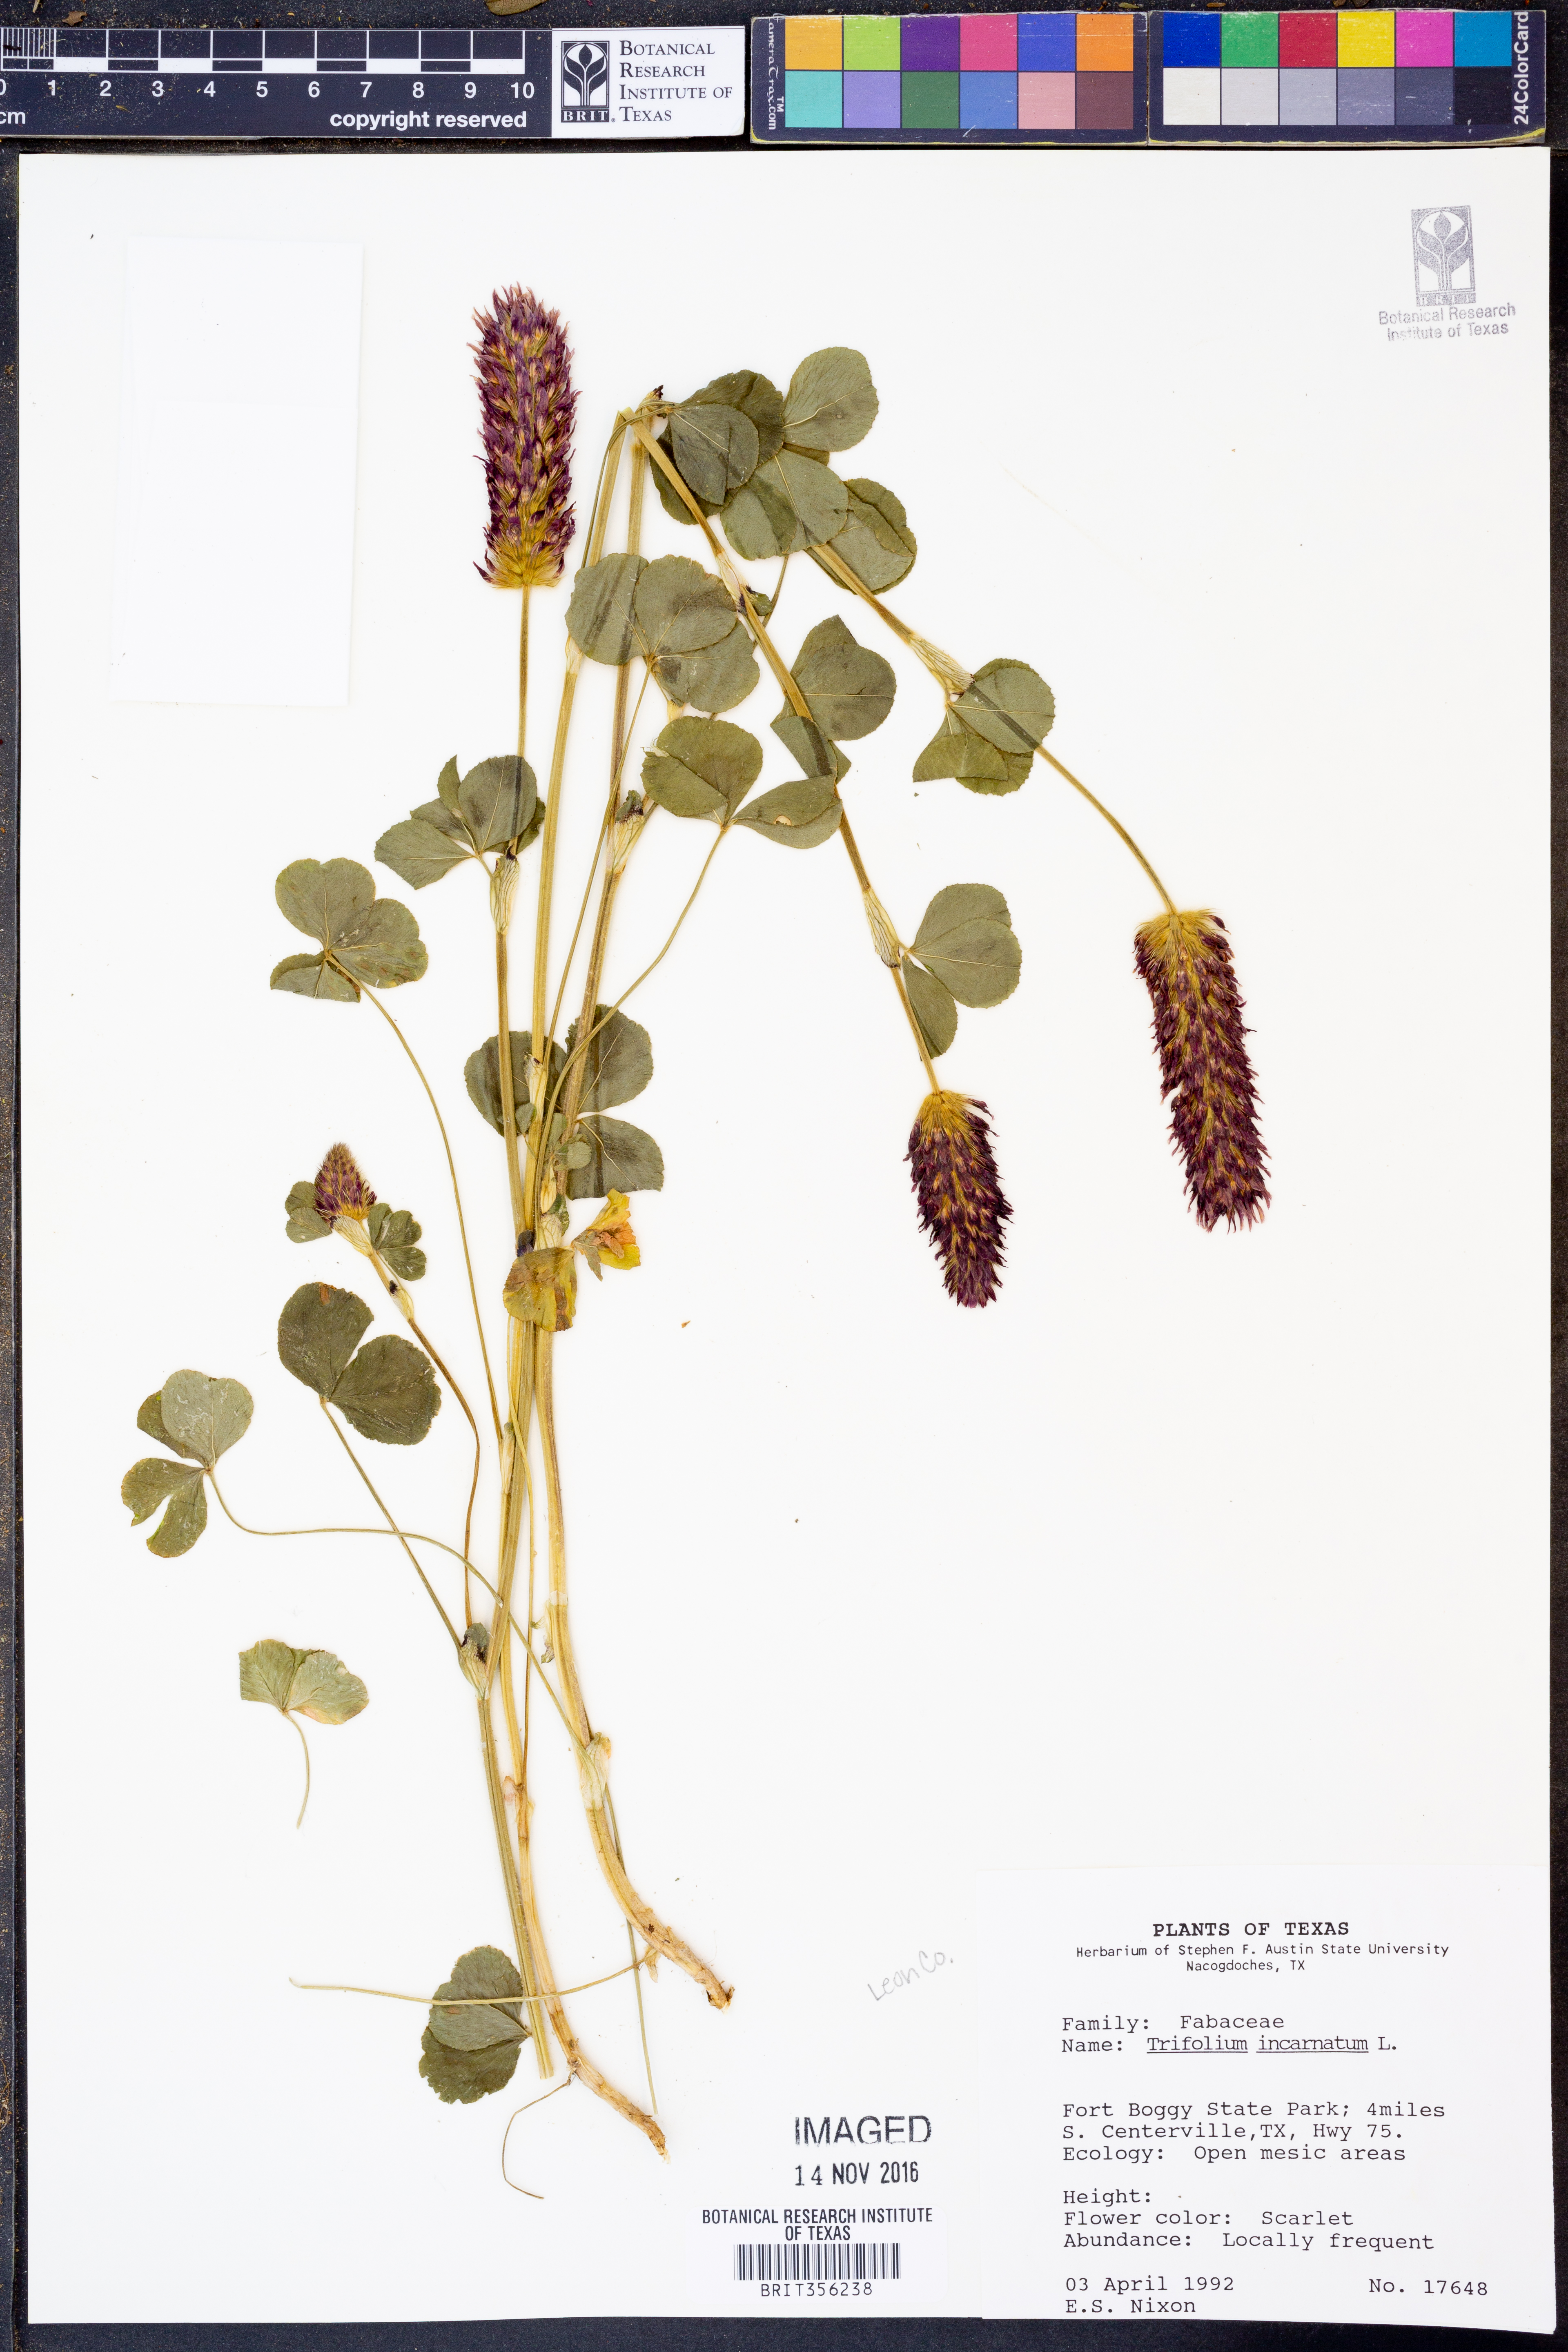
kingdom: Plantae
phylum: Tracheophyta
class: Magnoliopsida
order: Fabales
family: Fabaceae
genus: Trifolium
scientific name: Trifolium incarnatum
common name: Crimson clover
